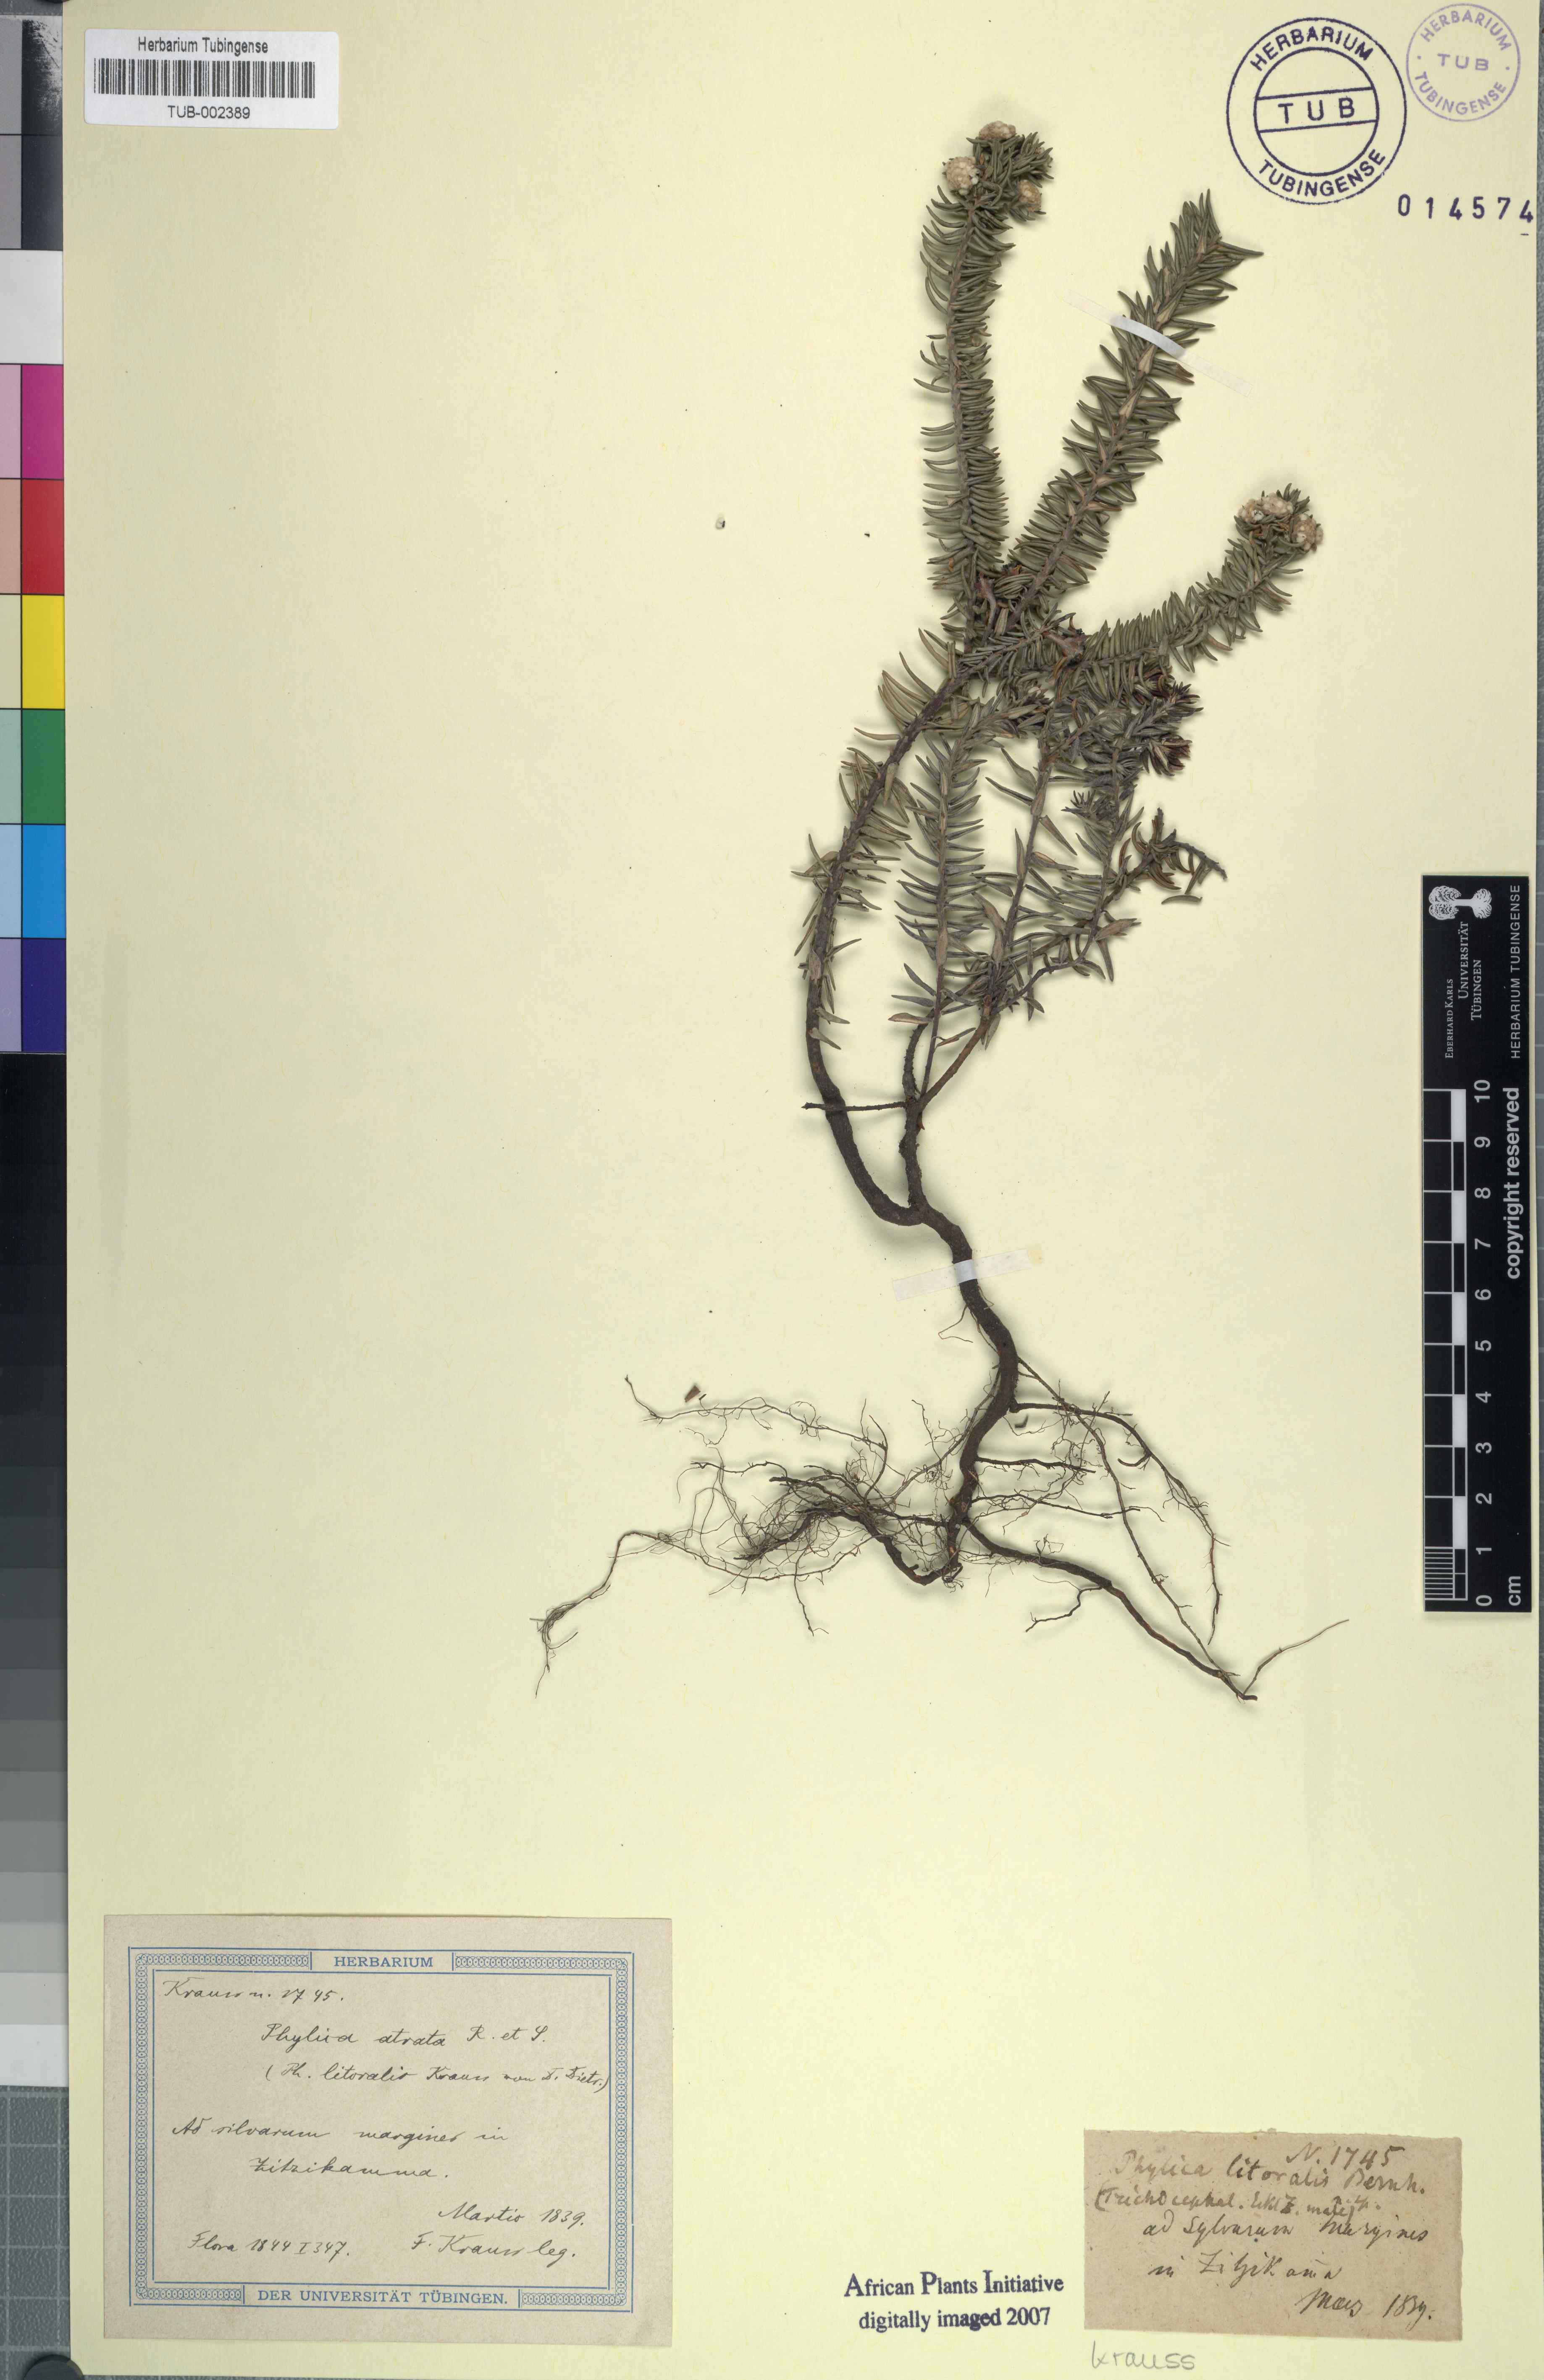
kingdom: Plantae
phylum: Tracheophyta
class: Magnoliopsida
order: Rosales
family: Rhamnaceae
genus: Phylica
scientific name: Phylica litoralis
